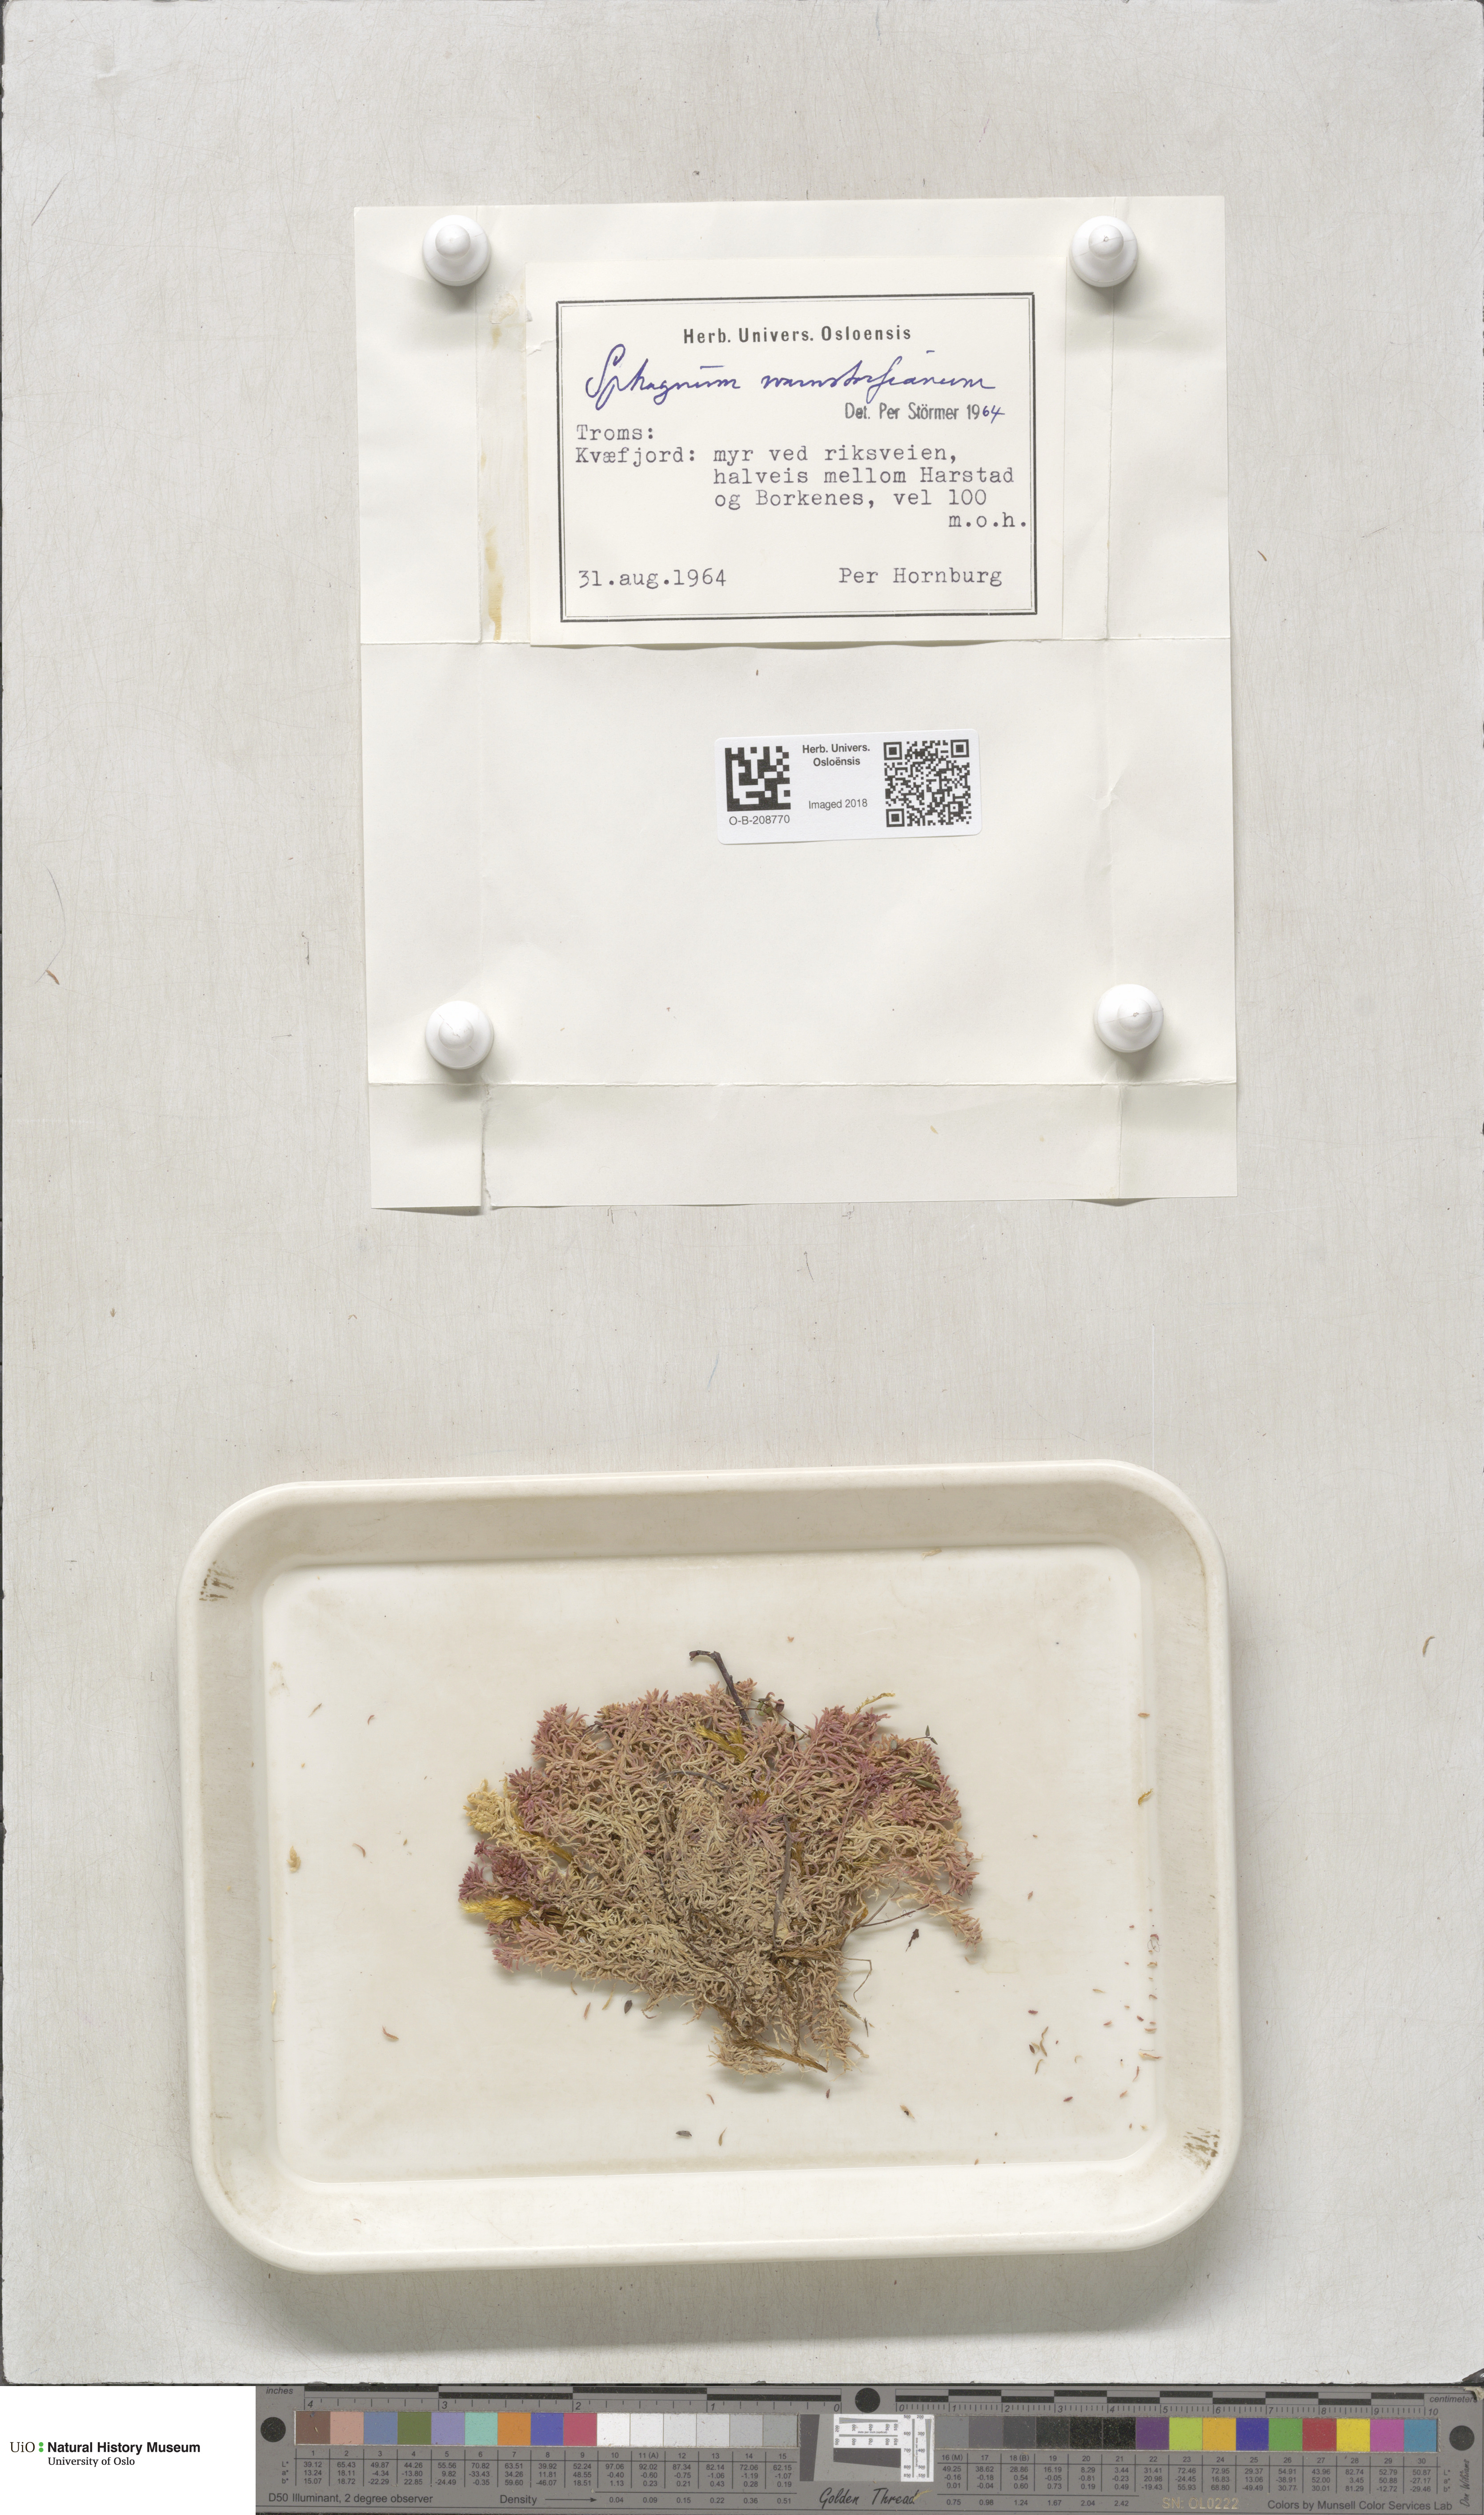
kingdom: Plantae
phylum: Bryophyta
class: Sphagnopsida
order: Sphagnales
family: Sphagnaceae
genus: Sphagnum
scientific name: Sphagnum warnstorfii
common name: Warnstorf's peat moss
